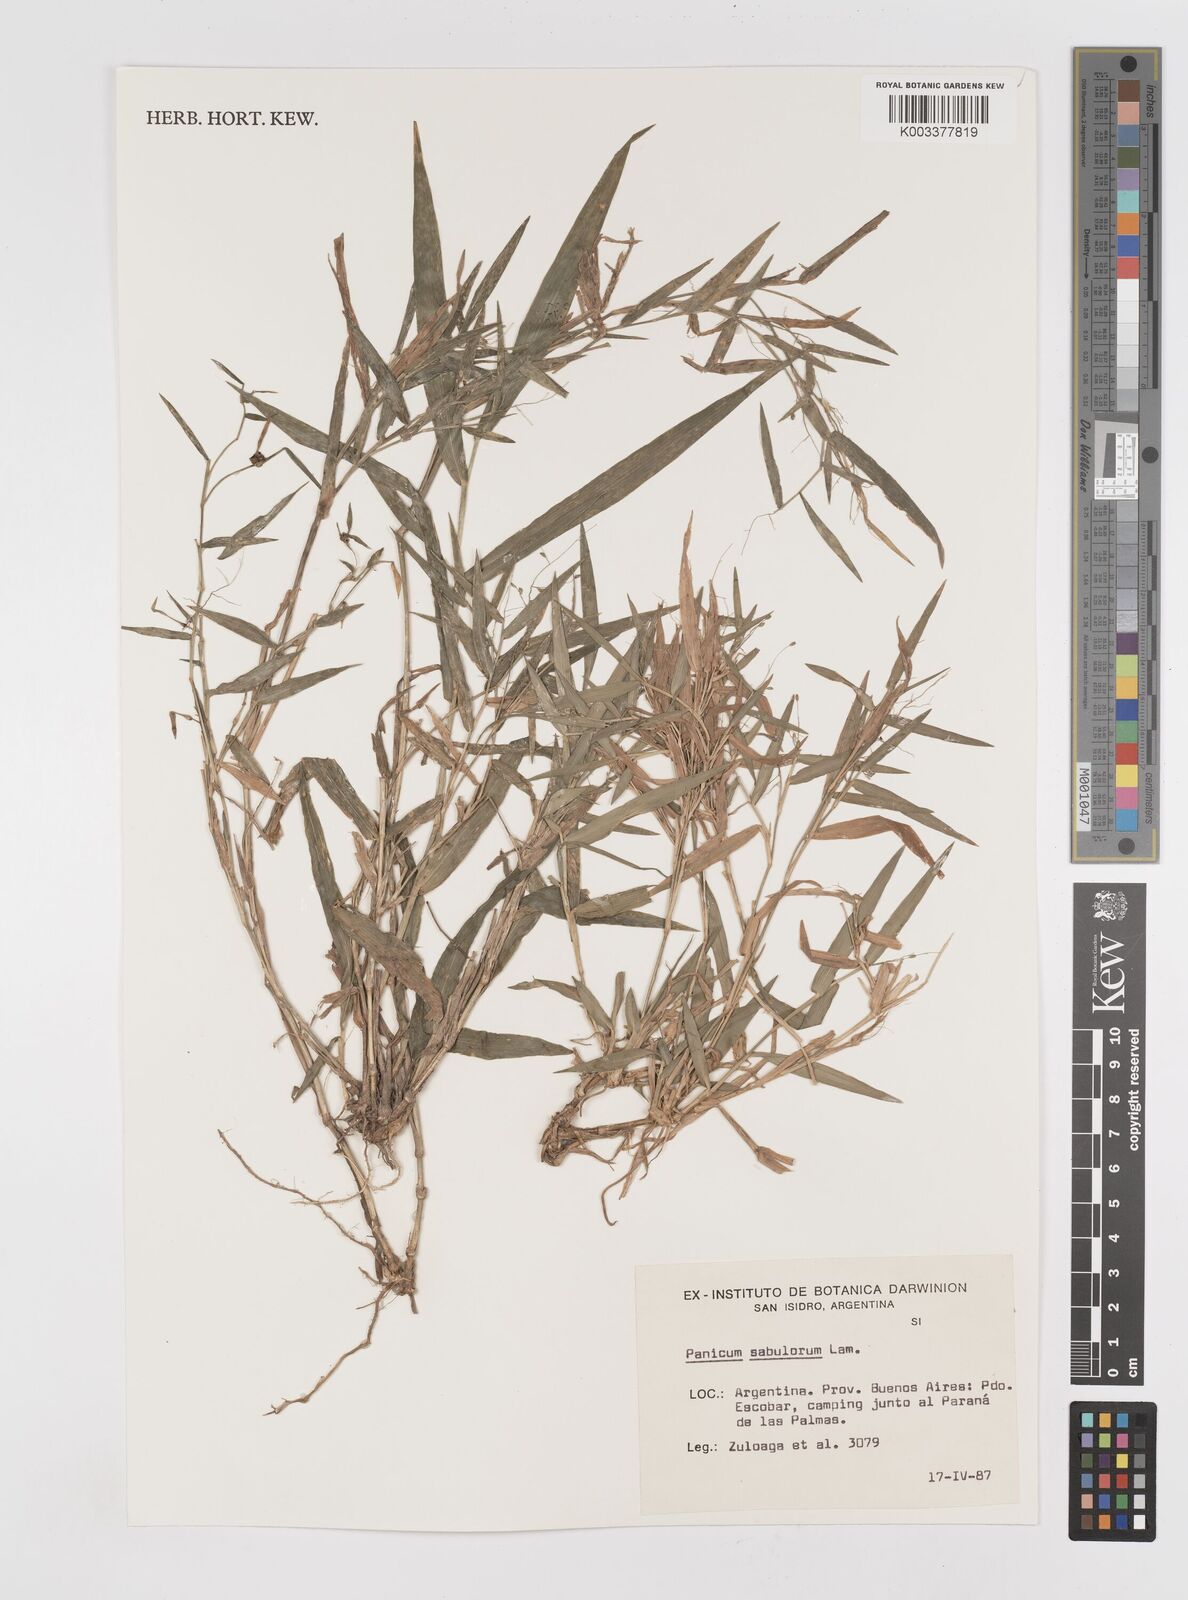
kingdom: Plantae
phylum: Tracheophyta
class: Liliopsida
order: Poales
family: Poaceae
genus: Dichanthelium
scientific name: Dichanthelium sabulorum
